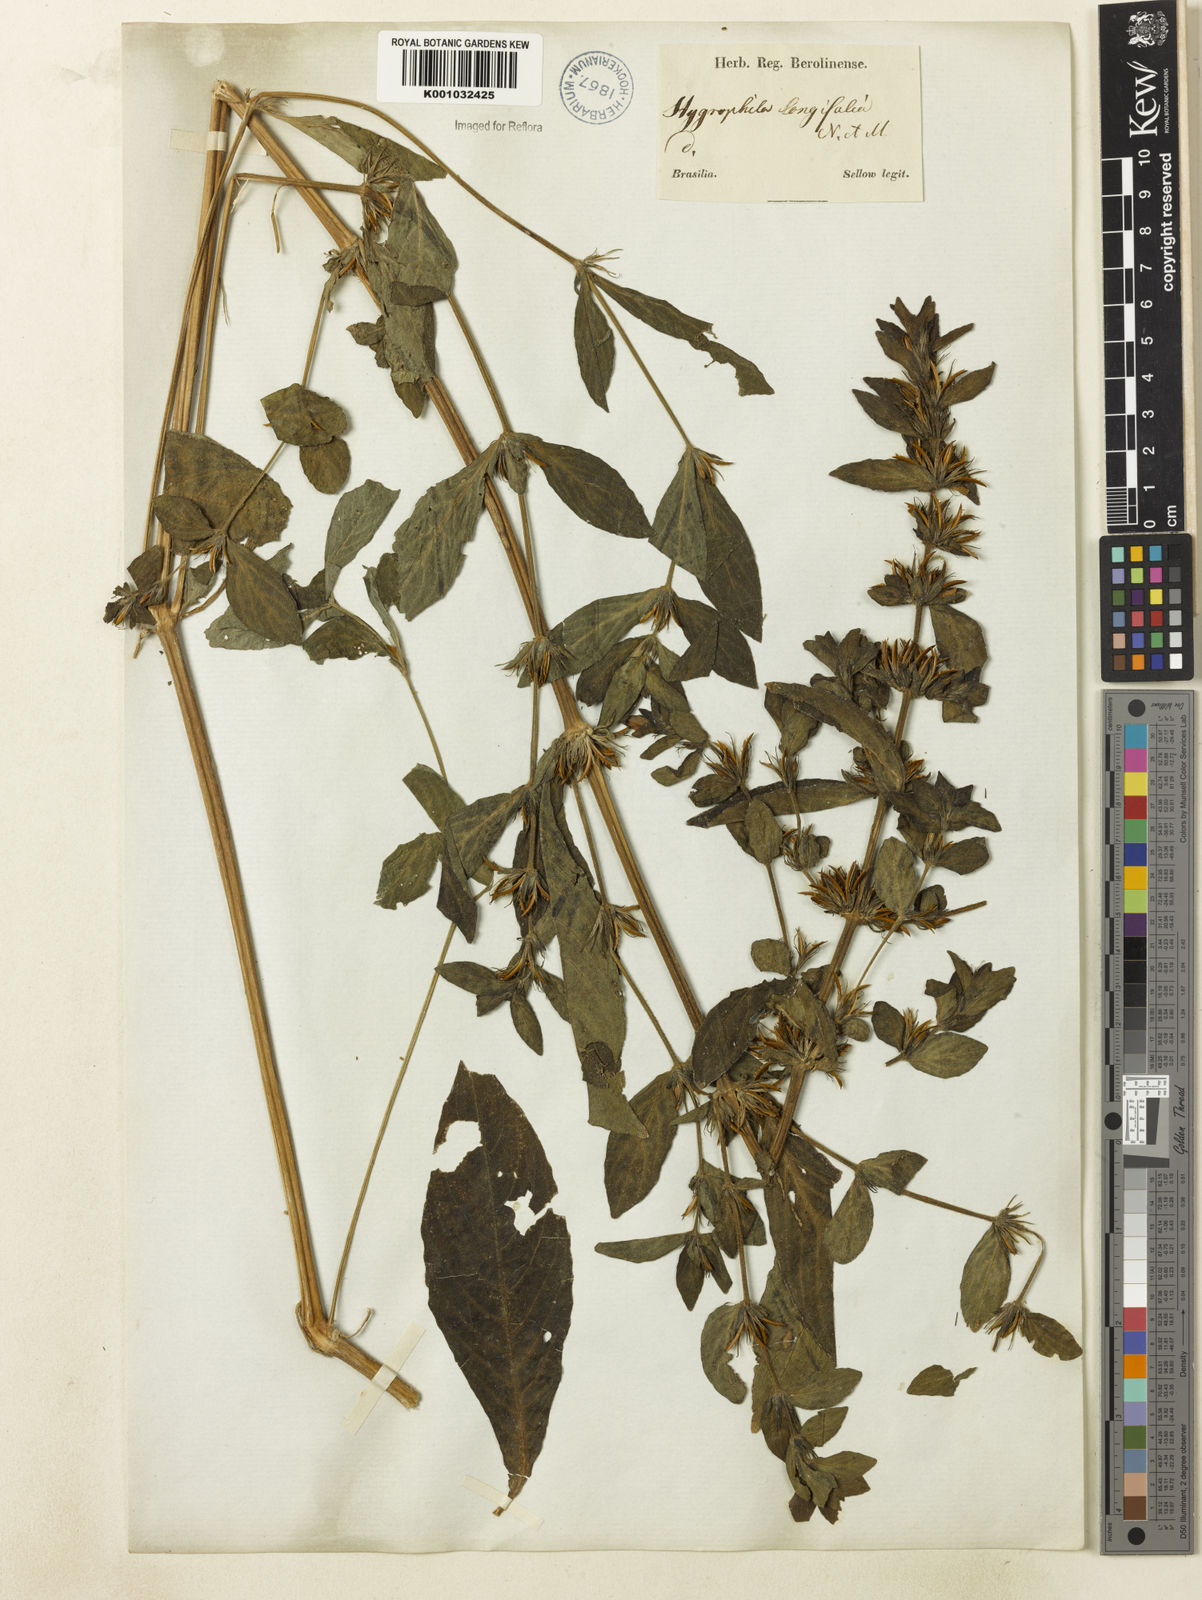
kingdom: Plantae
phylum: Tracheophyta
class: Magnoliopsida
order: Lamiales
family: Acanthaceae
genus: Hygrophila
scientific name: Hygrophila costata
